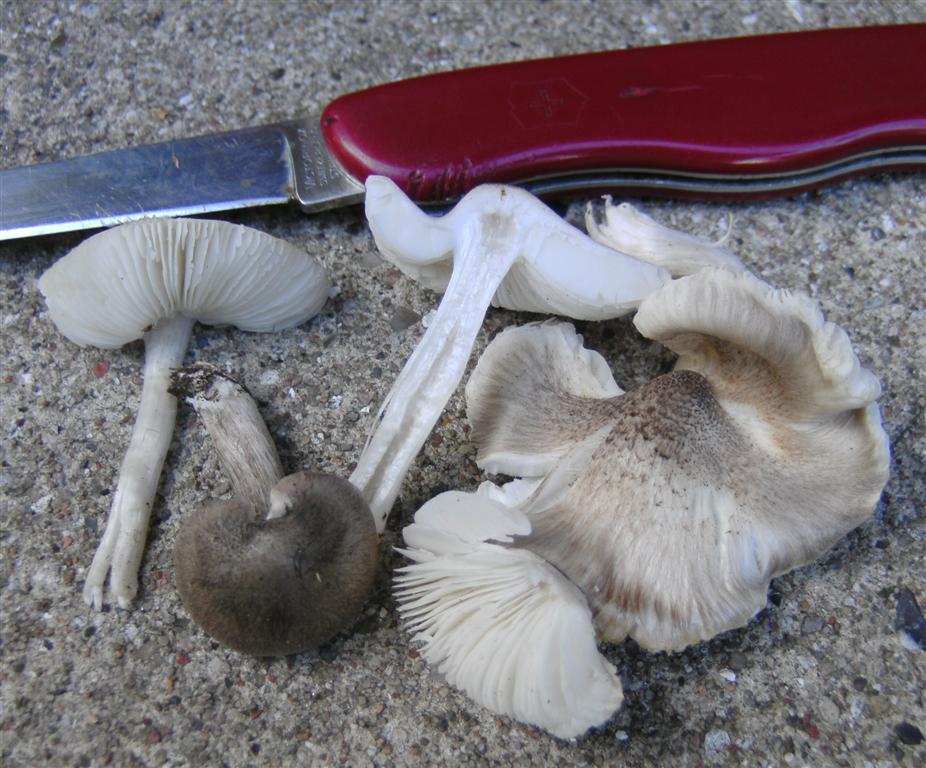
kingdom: Fungi
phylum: Basidiomycota
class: Agaricomycetes
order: Agaricales
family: Tricholomataceae
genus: Tricholoma
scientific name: Tricholoma argyraceum
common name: slør-ridderhat
